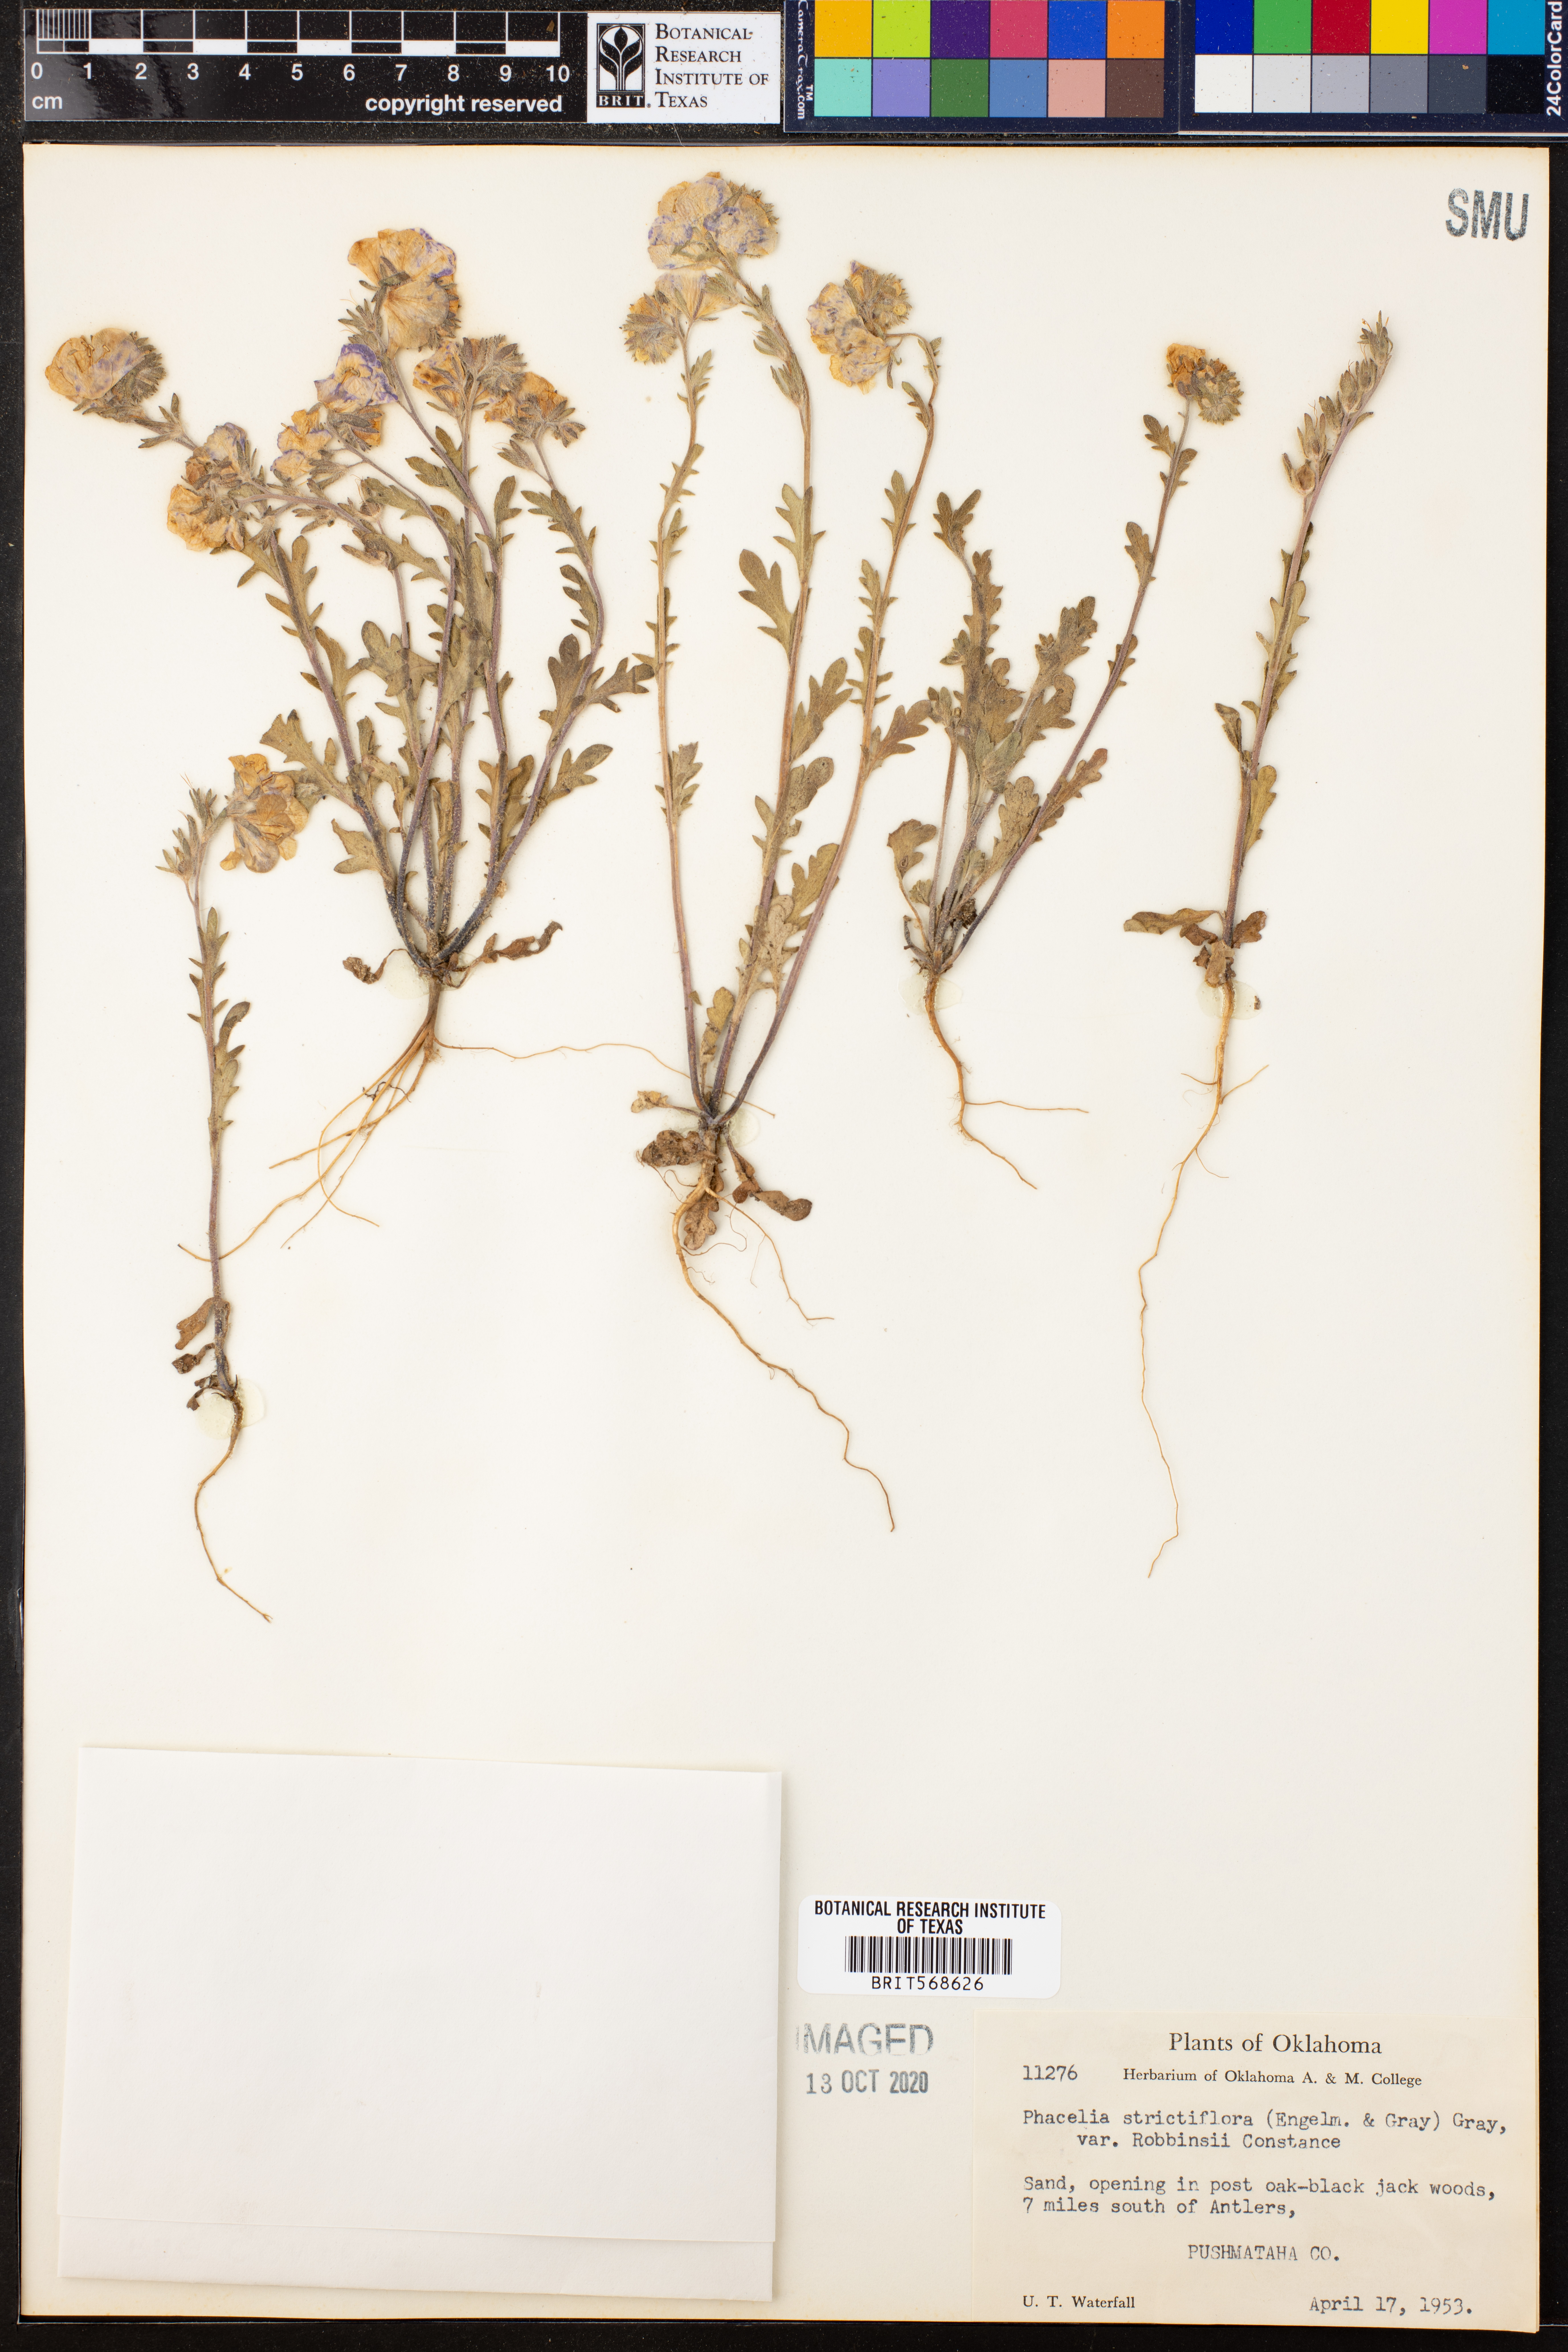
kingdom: Plantae
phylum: Tracheophyta
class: Magnoliopsida
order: Boraginales
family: Hydrophyllaceae
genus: Phacelia
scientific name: Phacelia strictiflora
